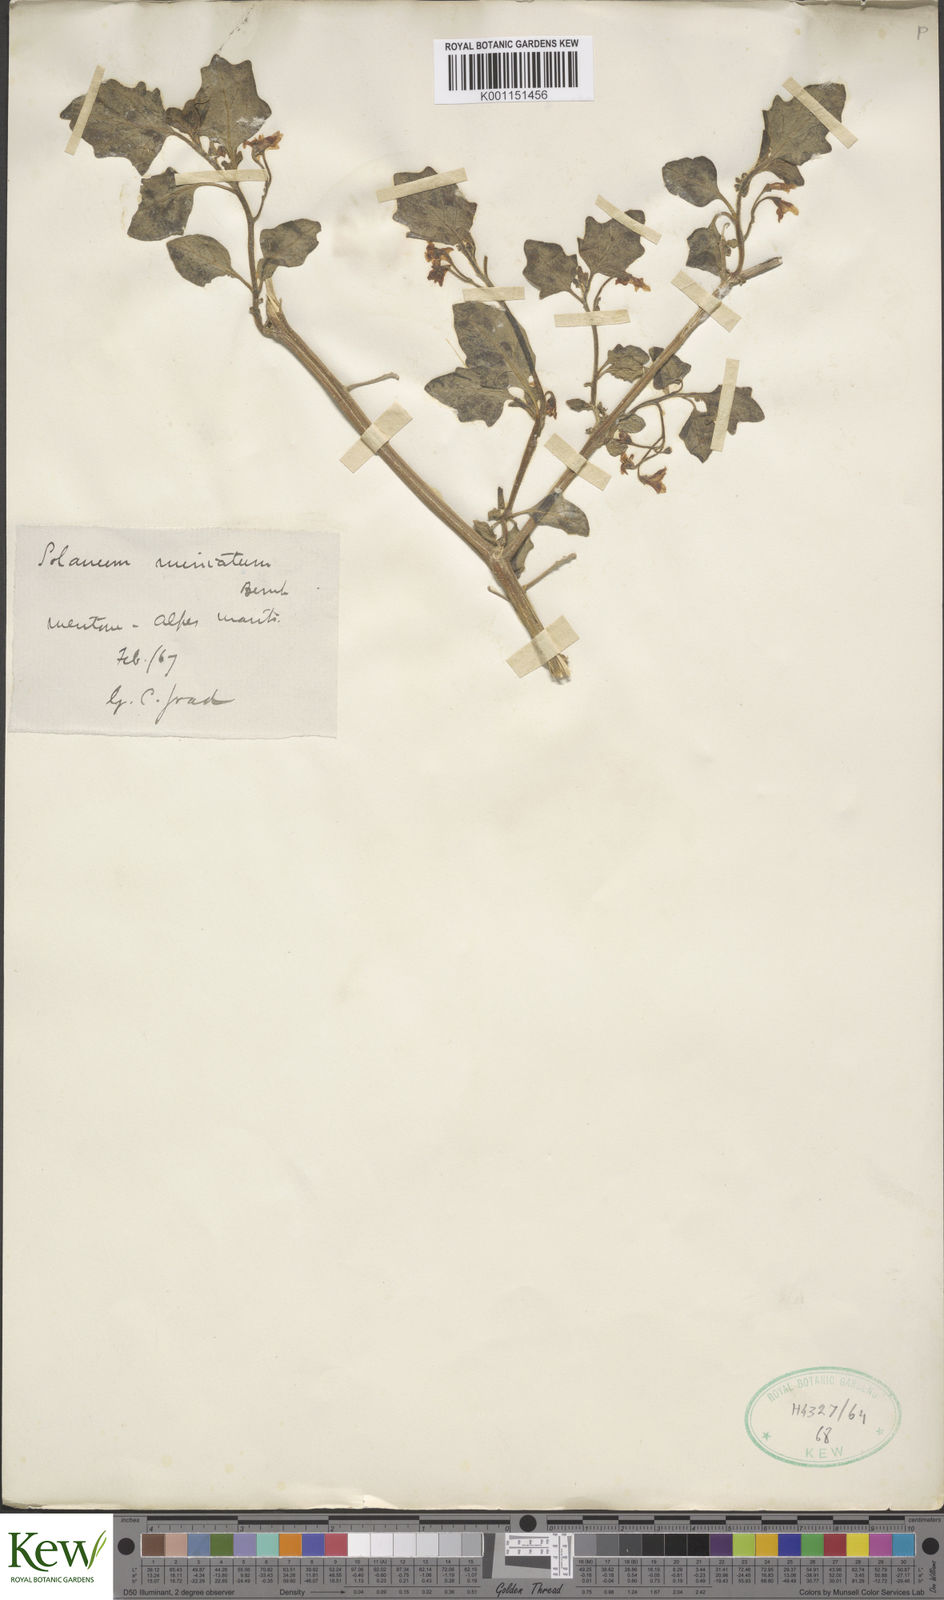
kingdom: Plantae
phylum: Tracheophyta
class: Magnoliopsida
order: Solanales
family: Solanaceae
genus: Solanum
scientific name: Solanum villosum
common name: Red nightshade
